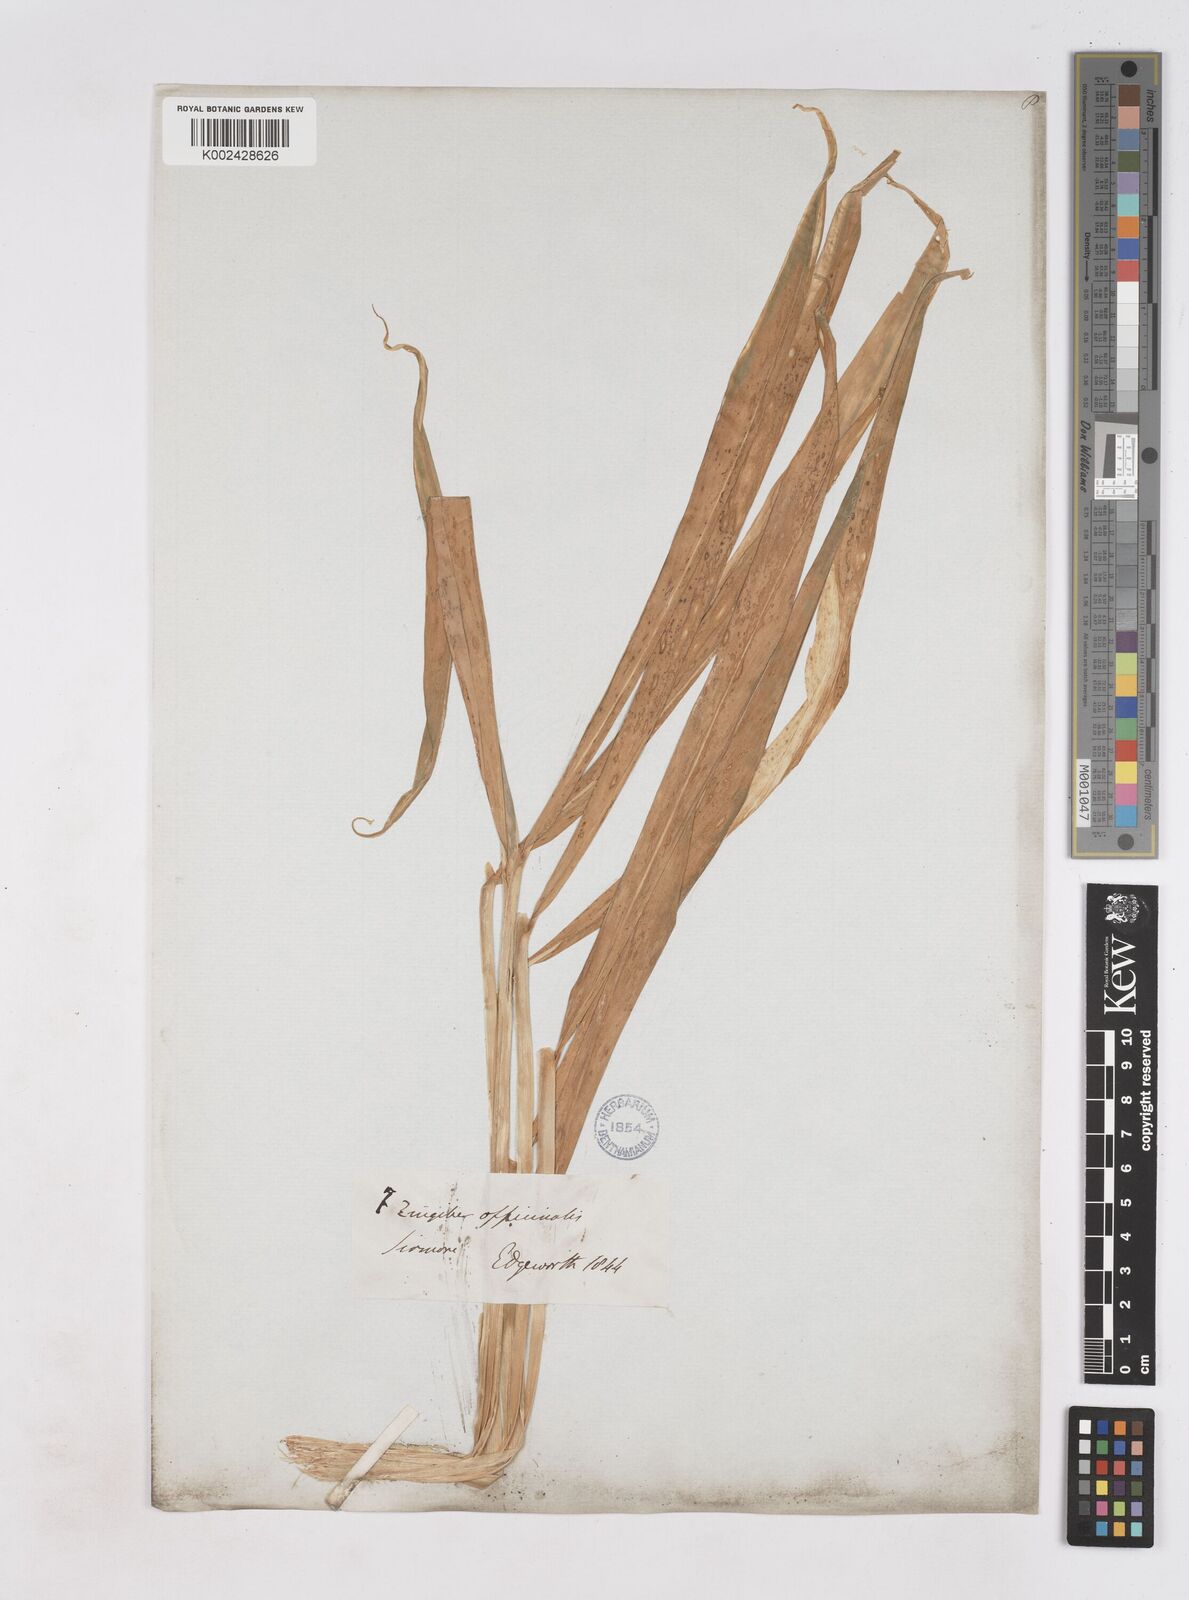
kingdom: Plantae
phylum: Tracheophyta
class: Liliopsida
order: Zingiberales
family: Zingiberaceae
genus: Zingiber
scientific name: Zingiber officinale
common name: Ginger
